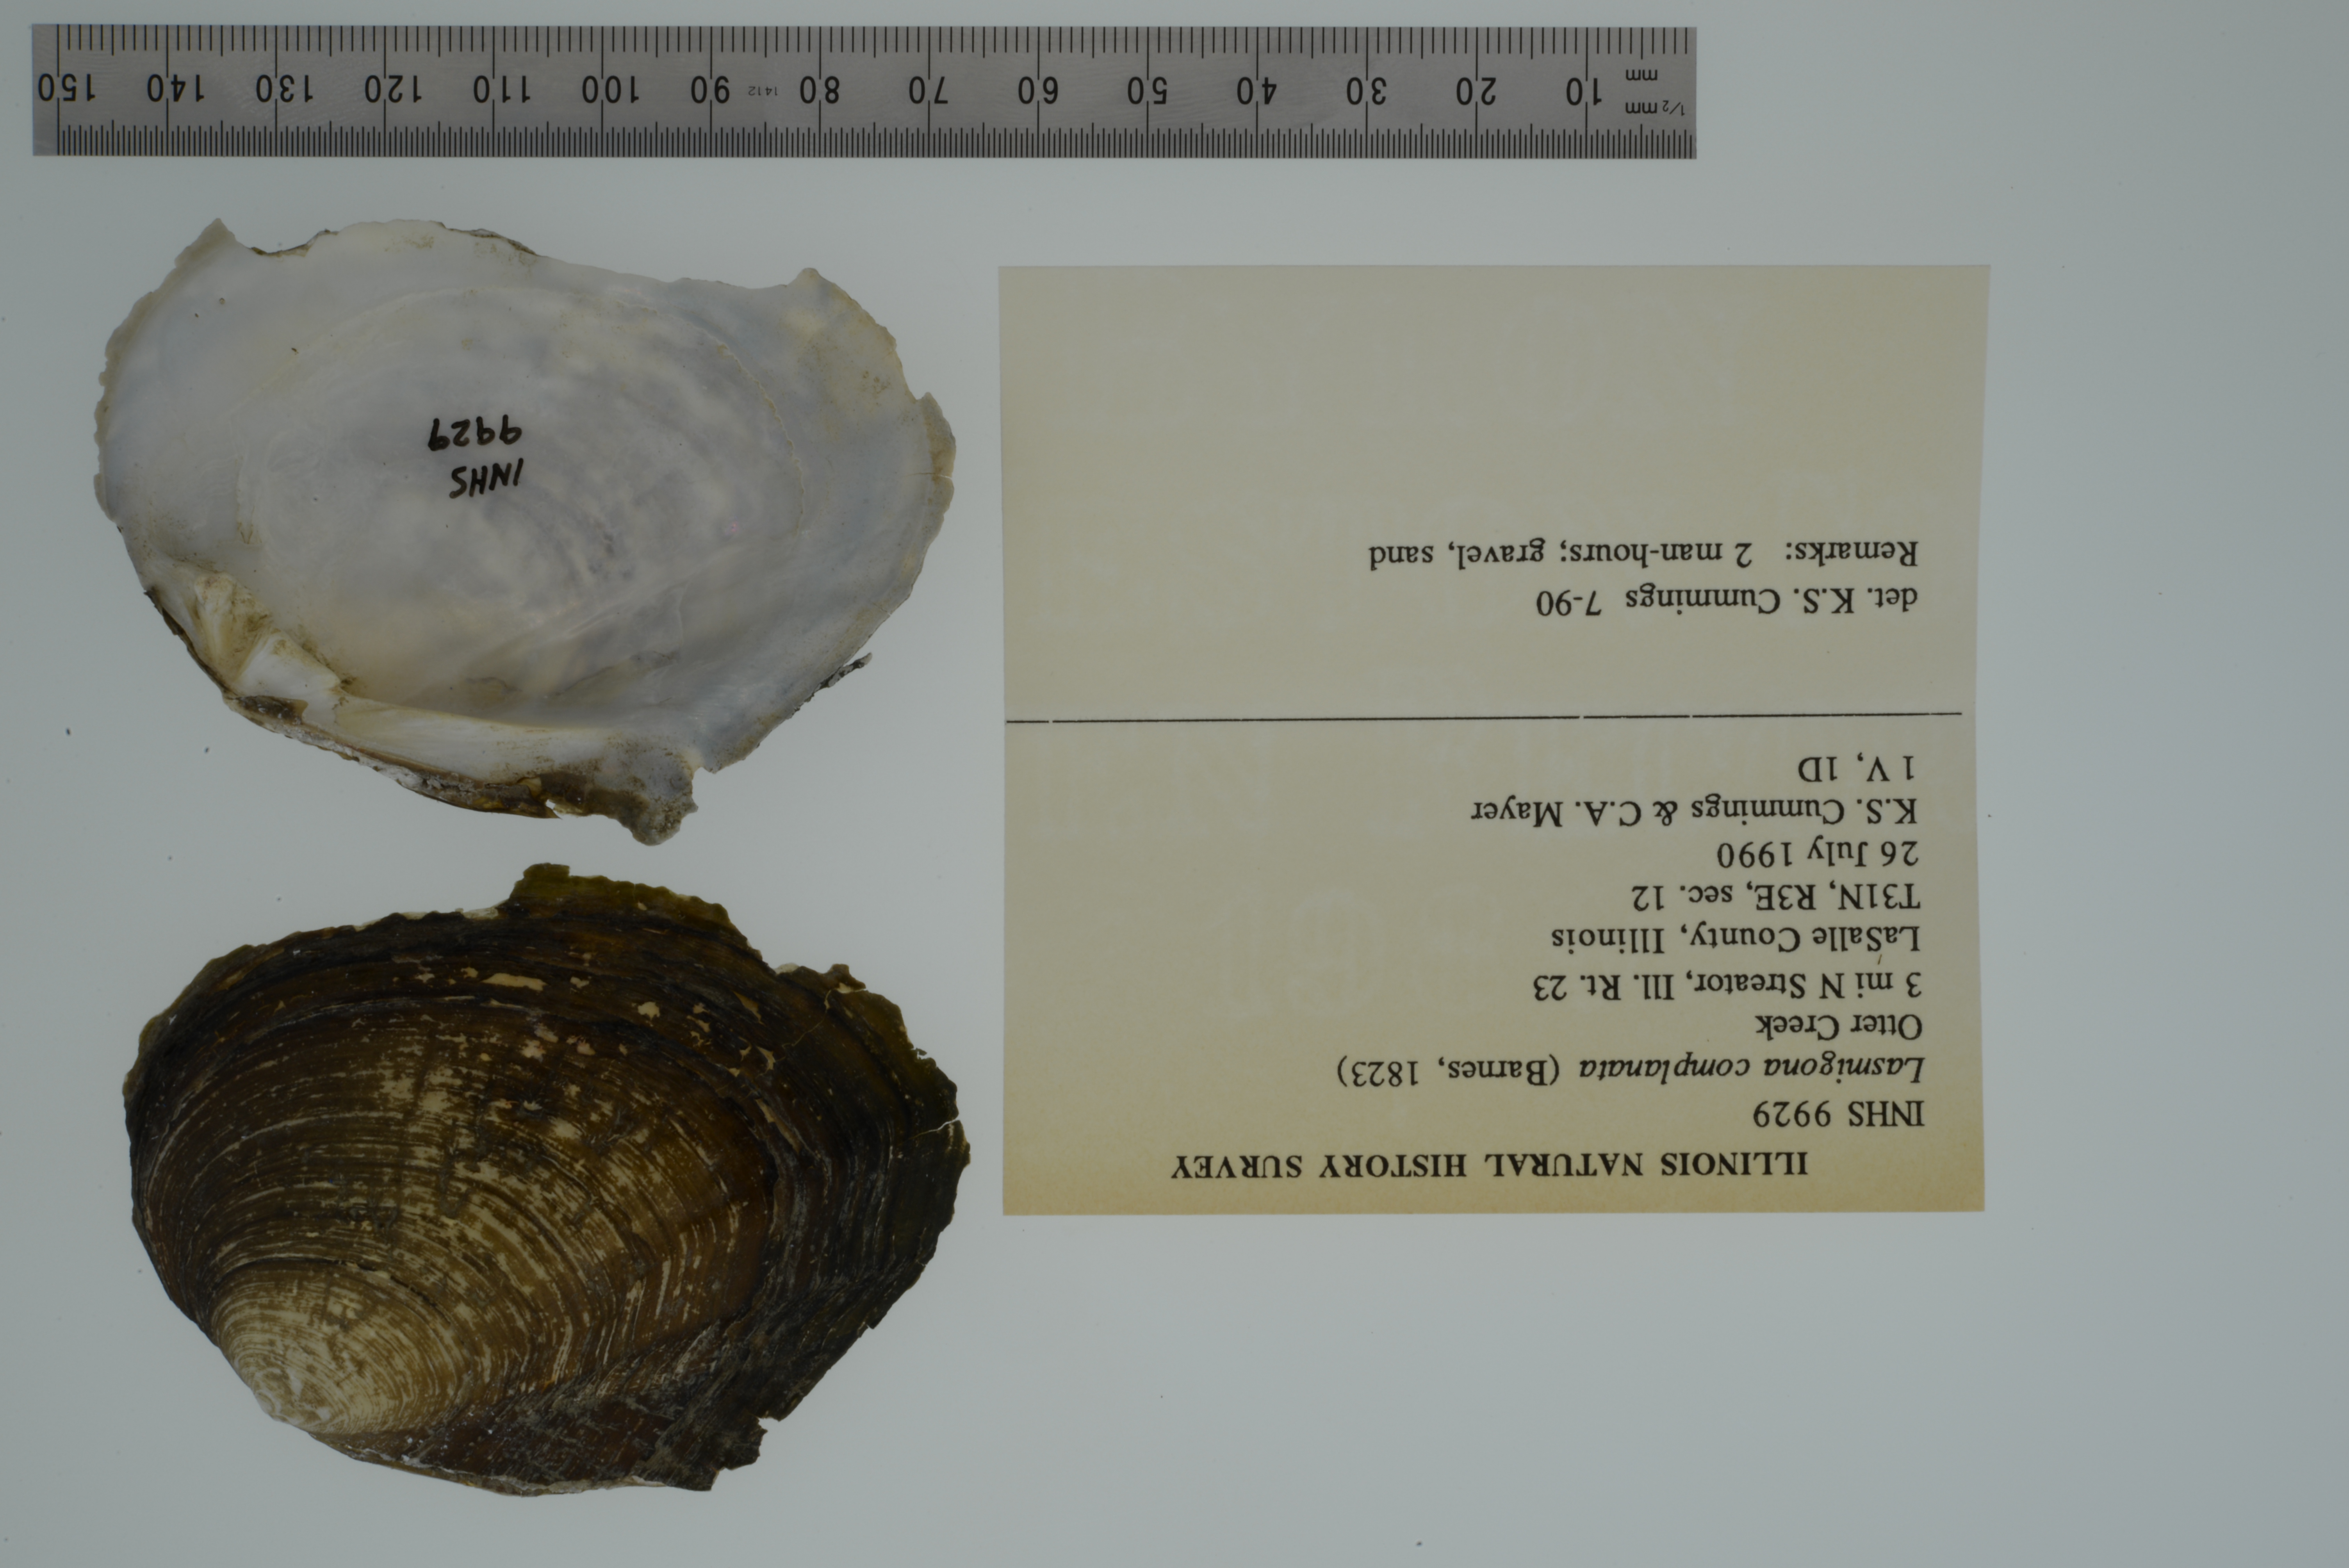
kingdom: Animalia
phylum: Mollusca
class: Bivalvia
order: Unionida
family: Unionidae
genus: Lasmigona
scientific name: Lasmigona complanata
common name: White heelsplitter
